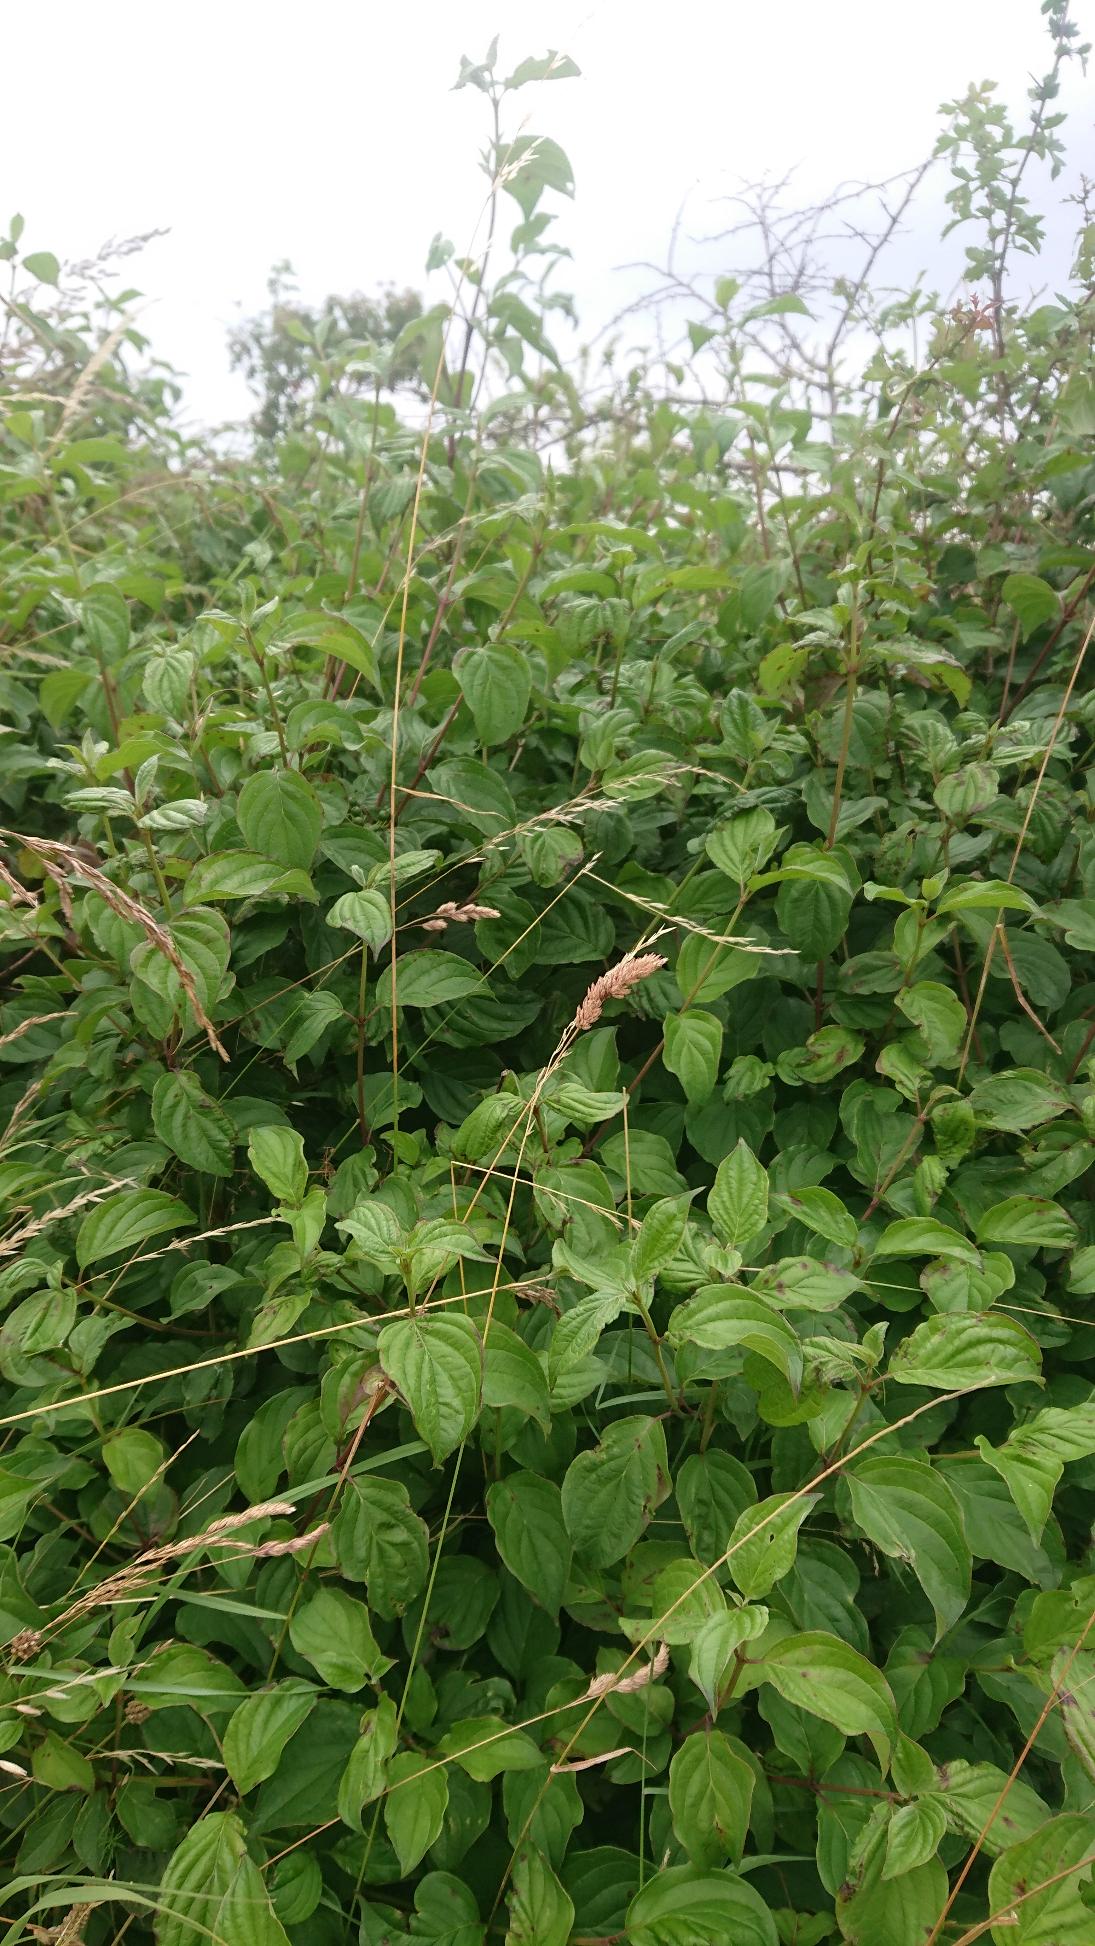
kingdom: Plantae
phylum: Tracheophyta
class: Magnoliopsida
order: Cornales
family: Cornaceae
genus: Cornus
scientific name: Cornus sanguinea
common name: Rød kornel
